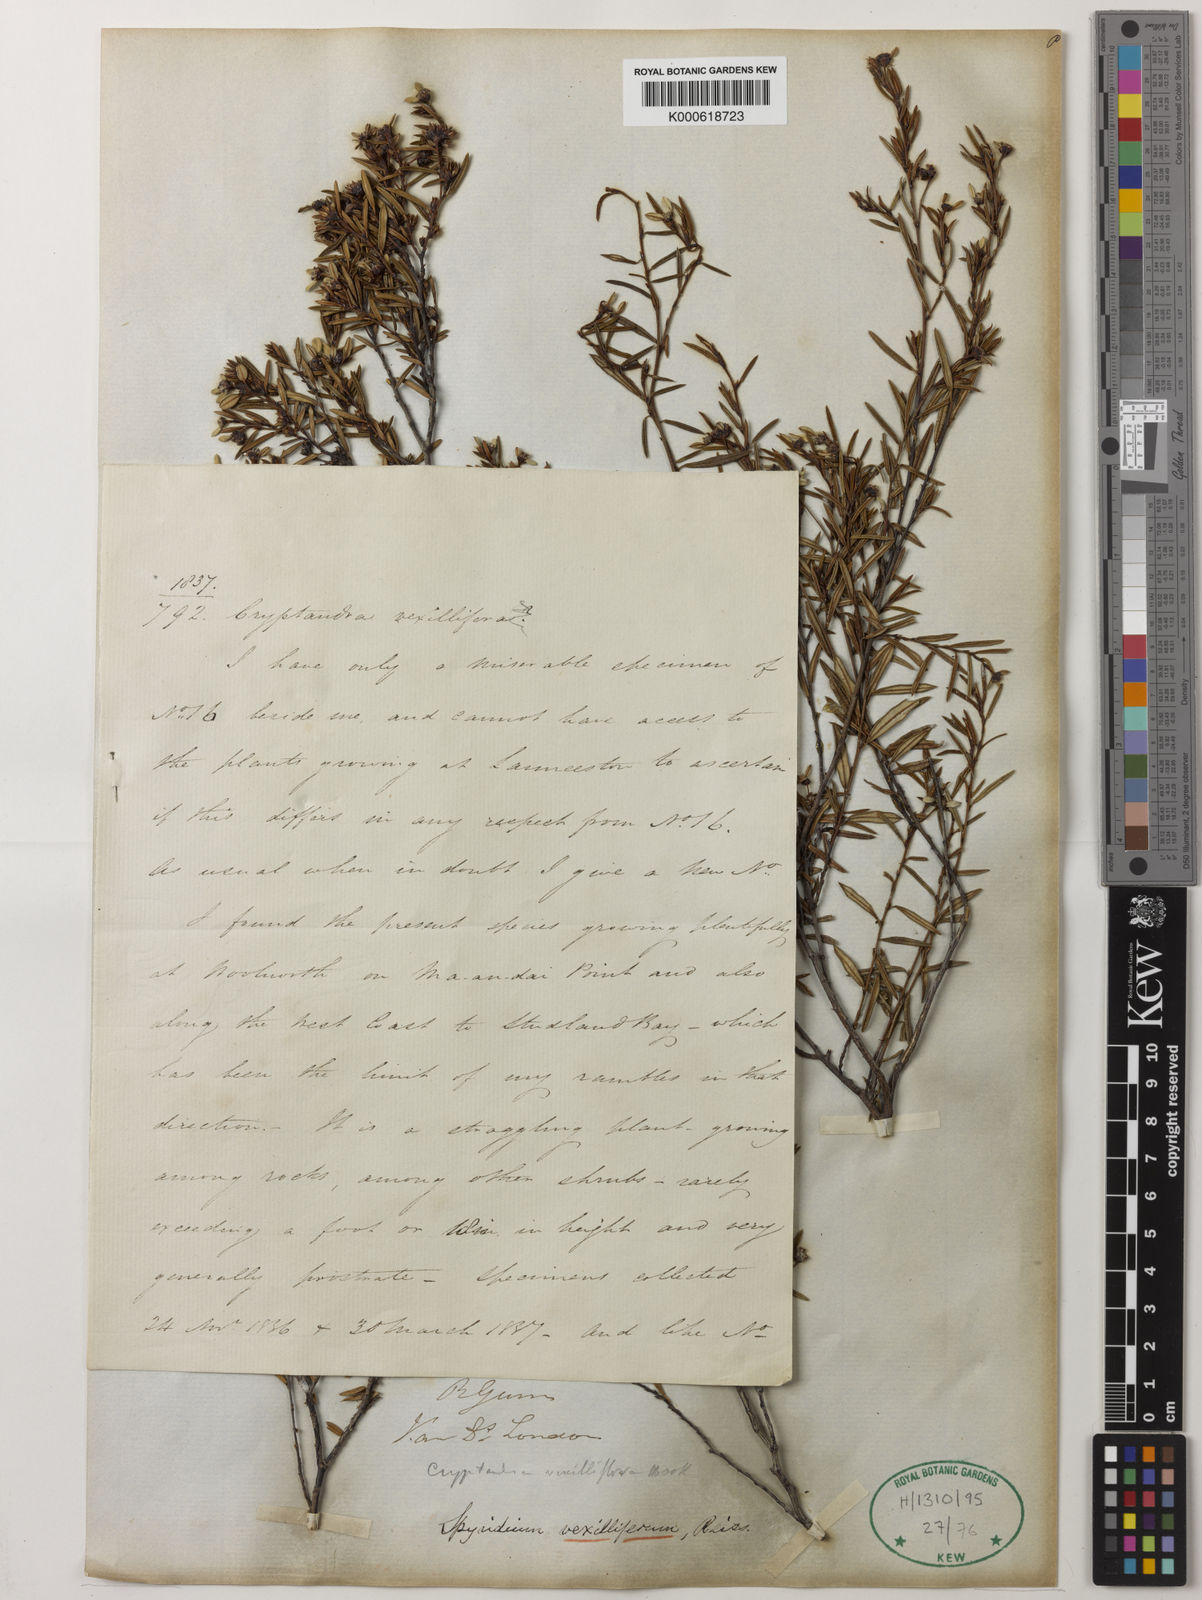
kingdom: Plantae
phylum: Tracheophyta
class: Magnoliopsida
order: Rosales
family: Rhamnaceae
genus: Spyridium
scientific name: Spyridium vexilliferum
